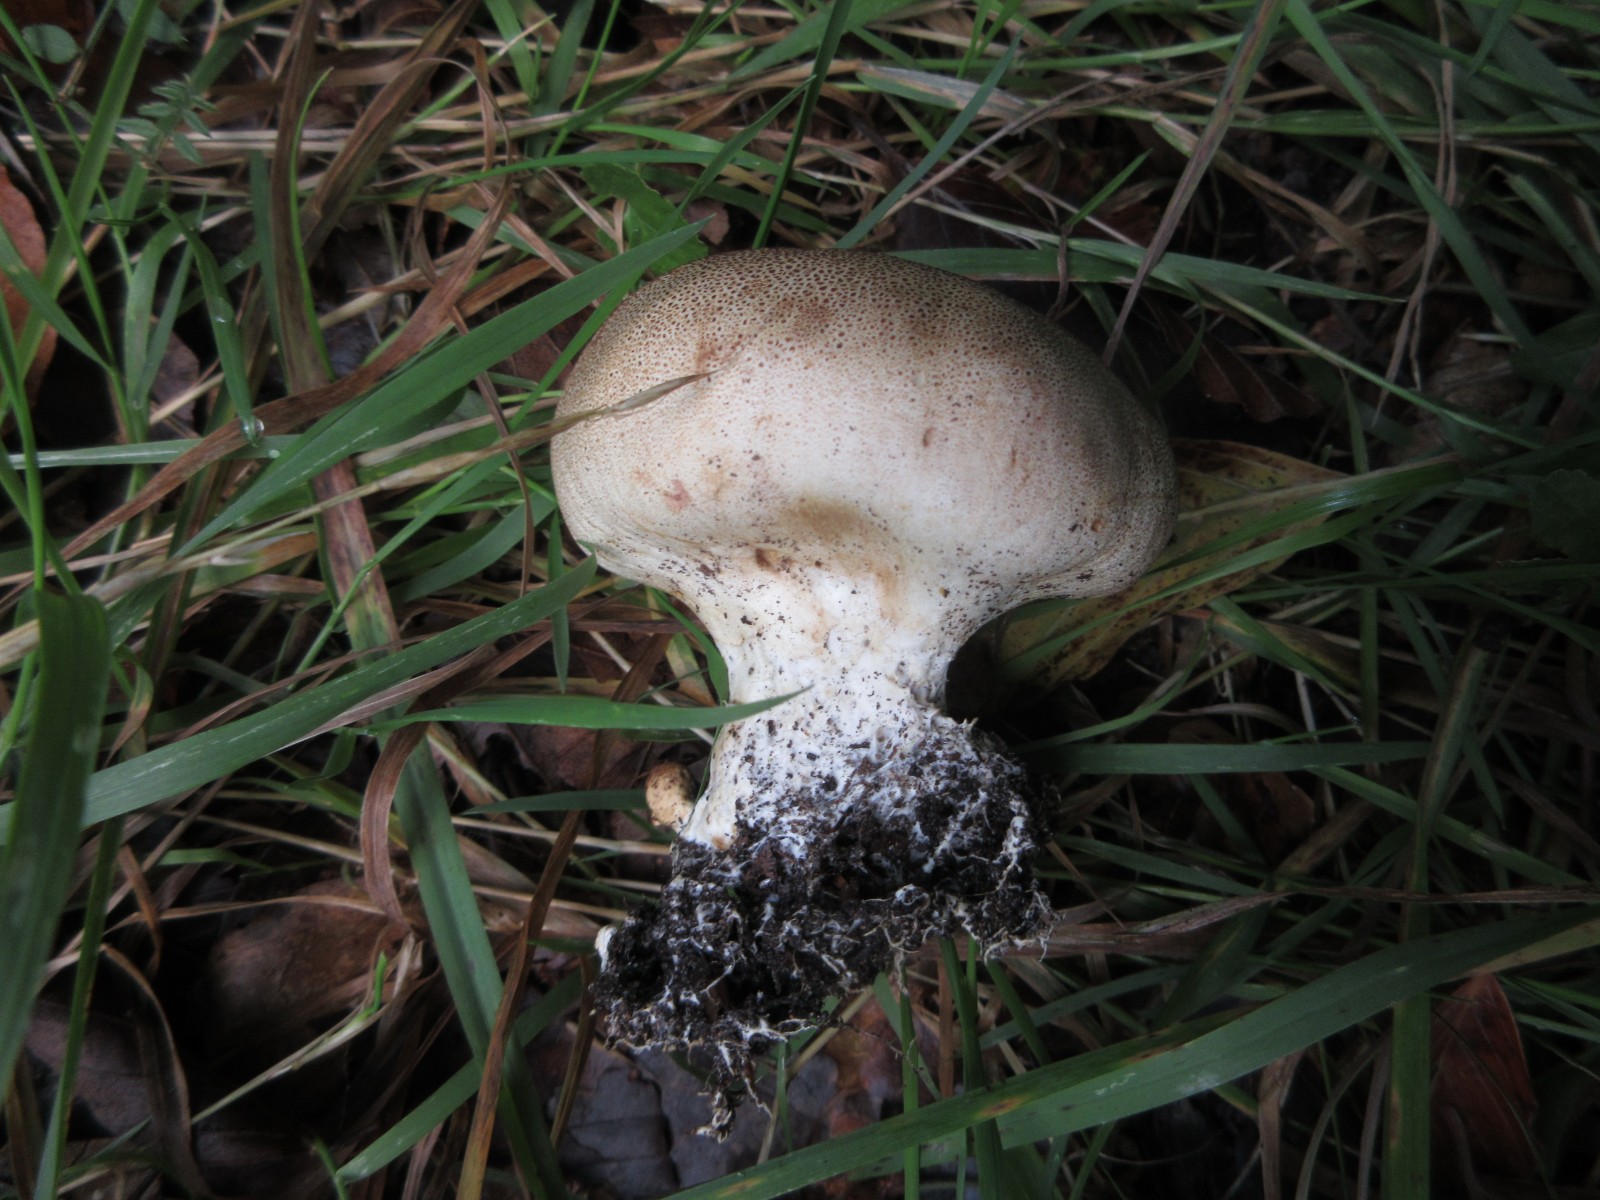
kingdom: Fungi
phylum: Basidiomycota
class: Agaricomycetes
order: Boletales
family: Sclerodermataceae
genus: Scleroderma
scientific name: Scleroderma verrucosum
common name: stilket bruskbold
